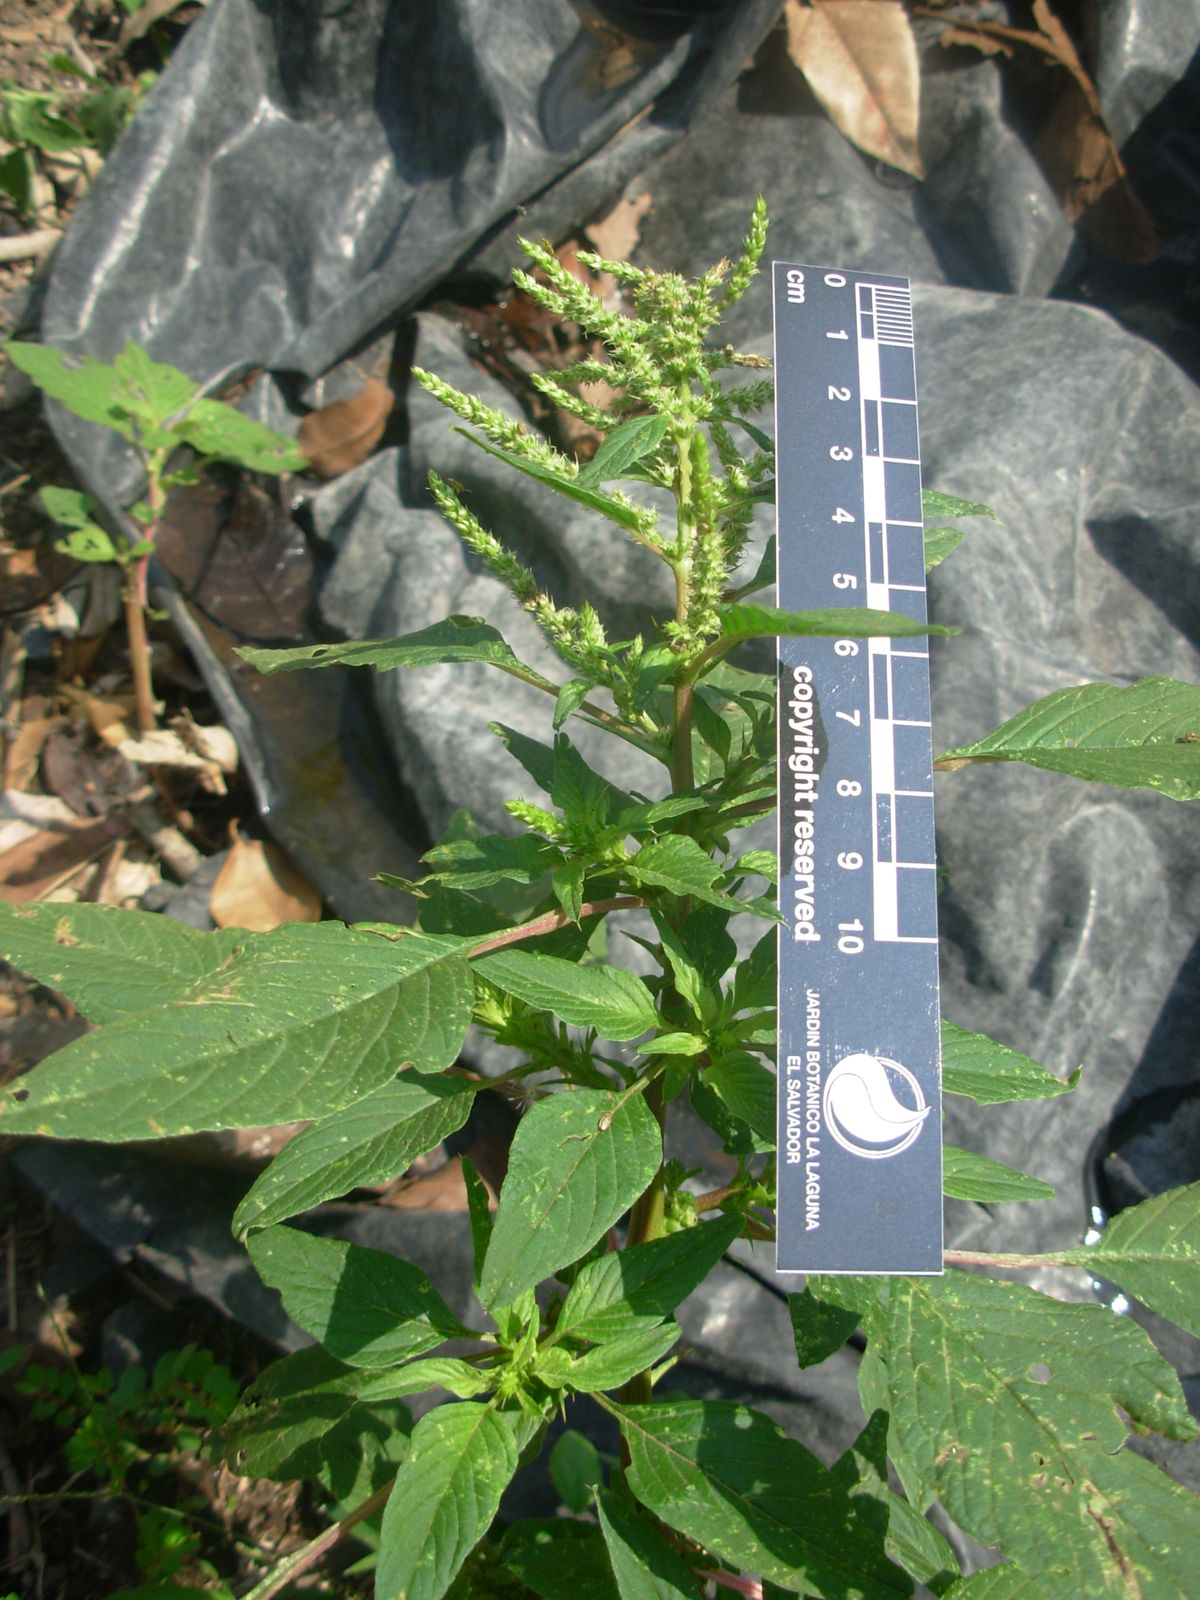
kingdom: Plantae
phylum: Tracheophyta
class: Magnoliopsida
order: Caryophyllales
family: Amaranthaceae
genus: Amaranthus
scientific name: Amaranthus spinosus
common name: Spiny amaranth
